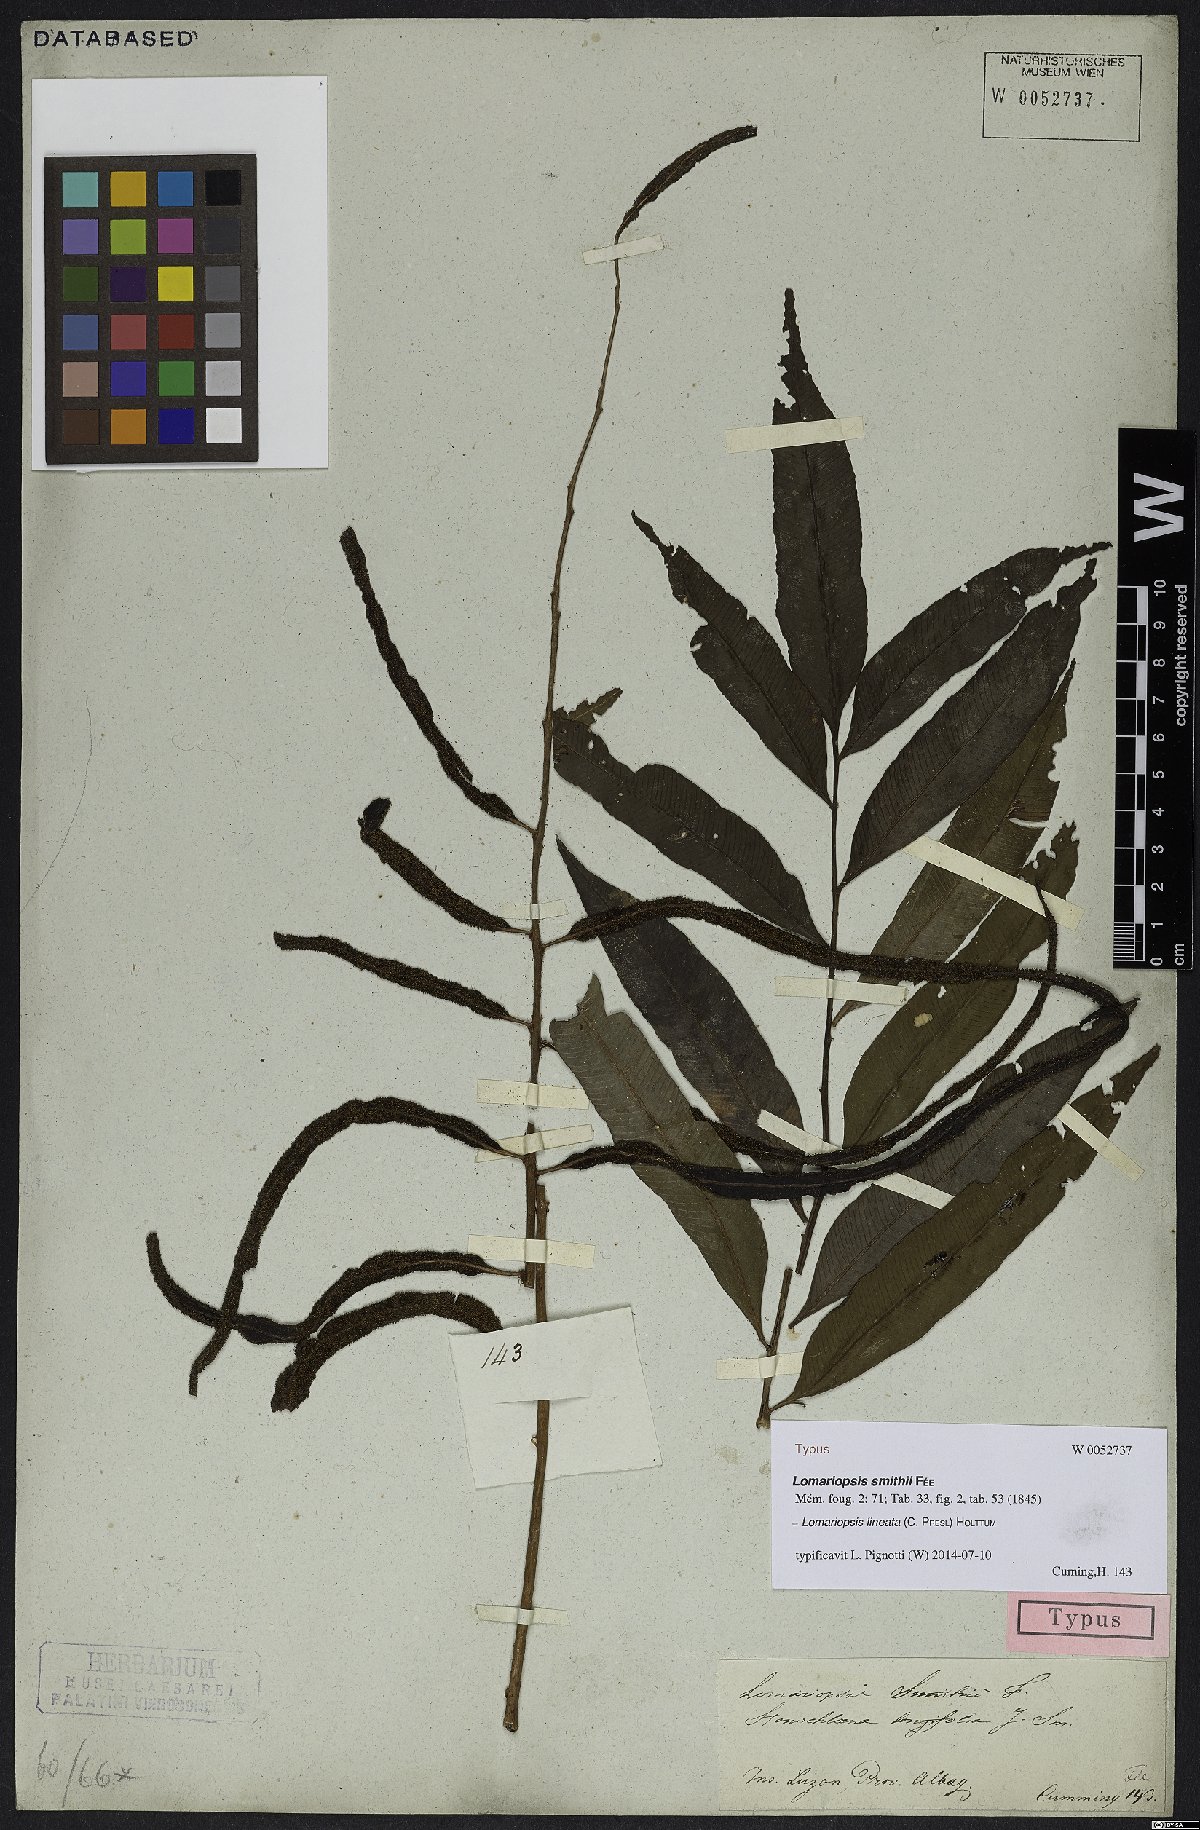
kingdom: Plantae
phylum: Tracheophyta
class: Polypodiopsida
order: Polypodiales
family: Lomariopsidaceae
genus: Lomariopsis
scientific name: Lomariopsis lineata
